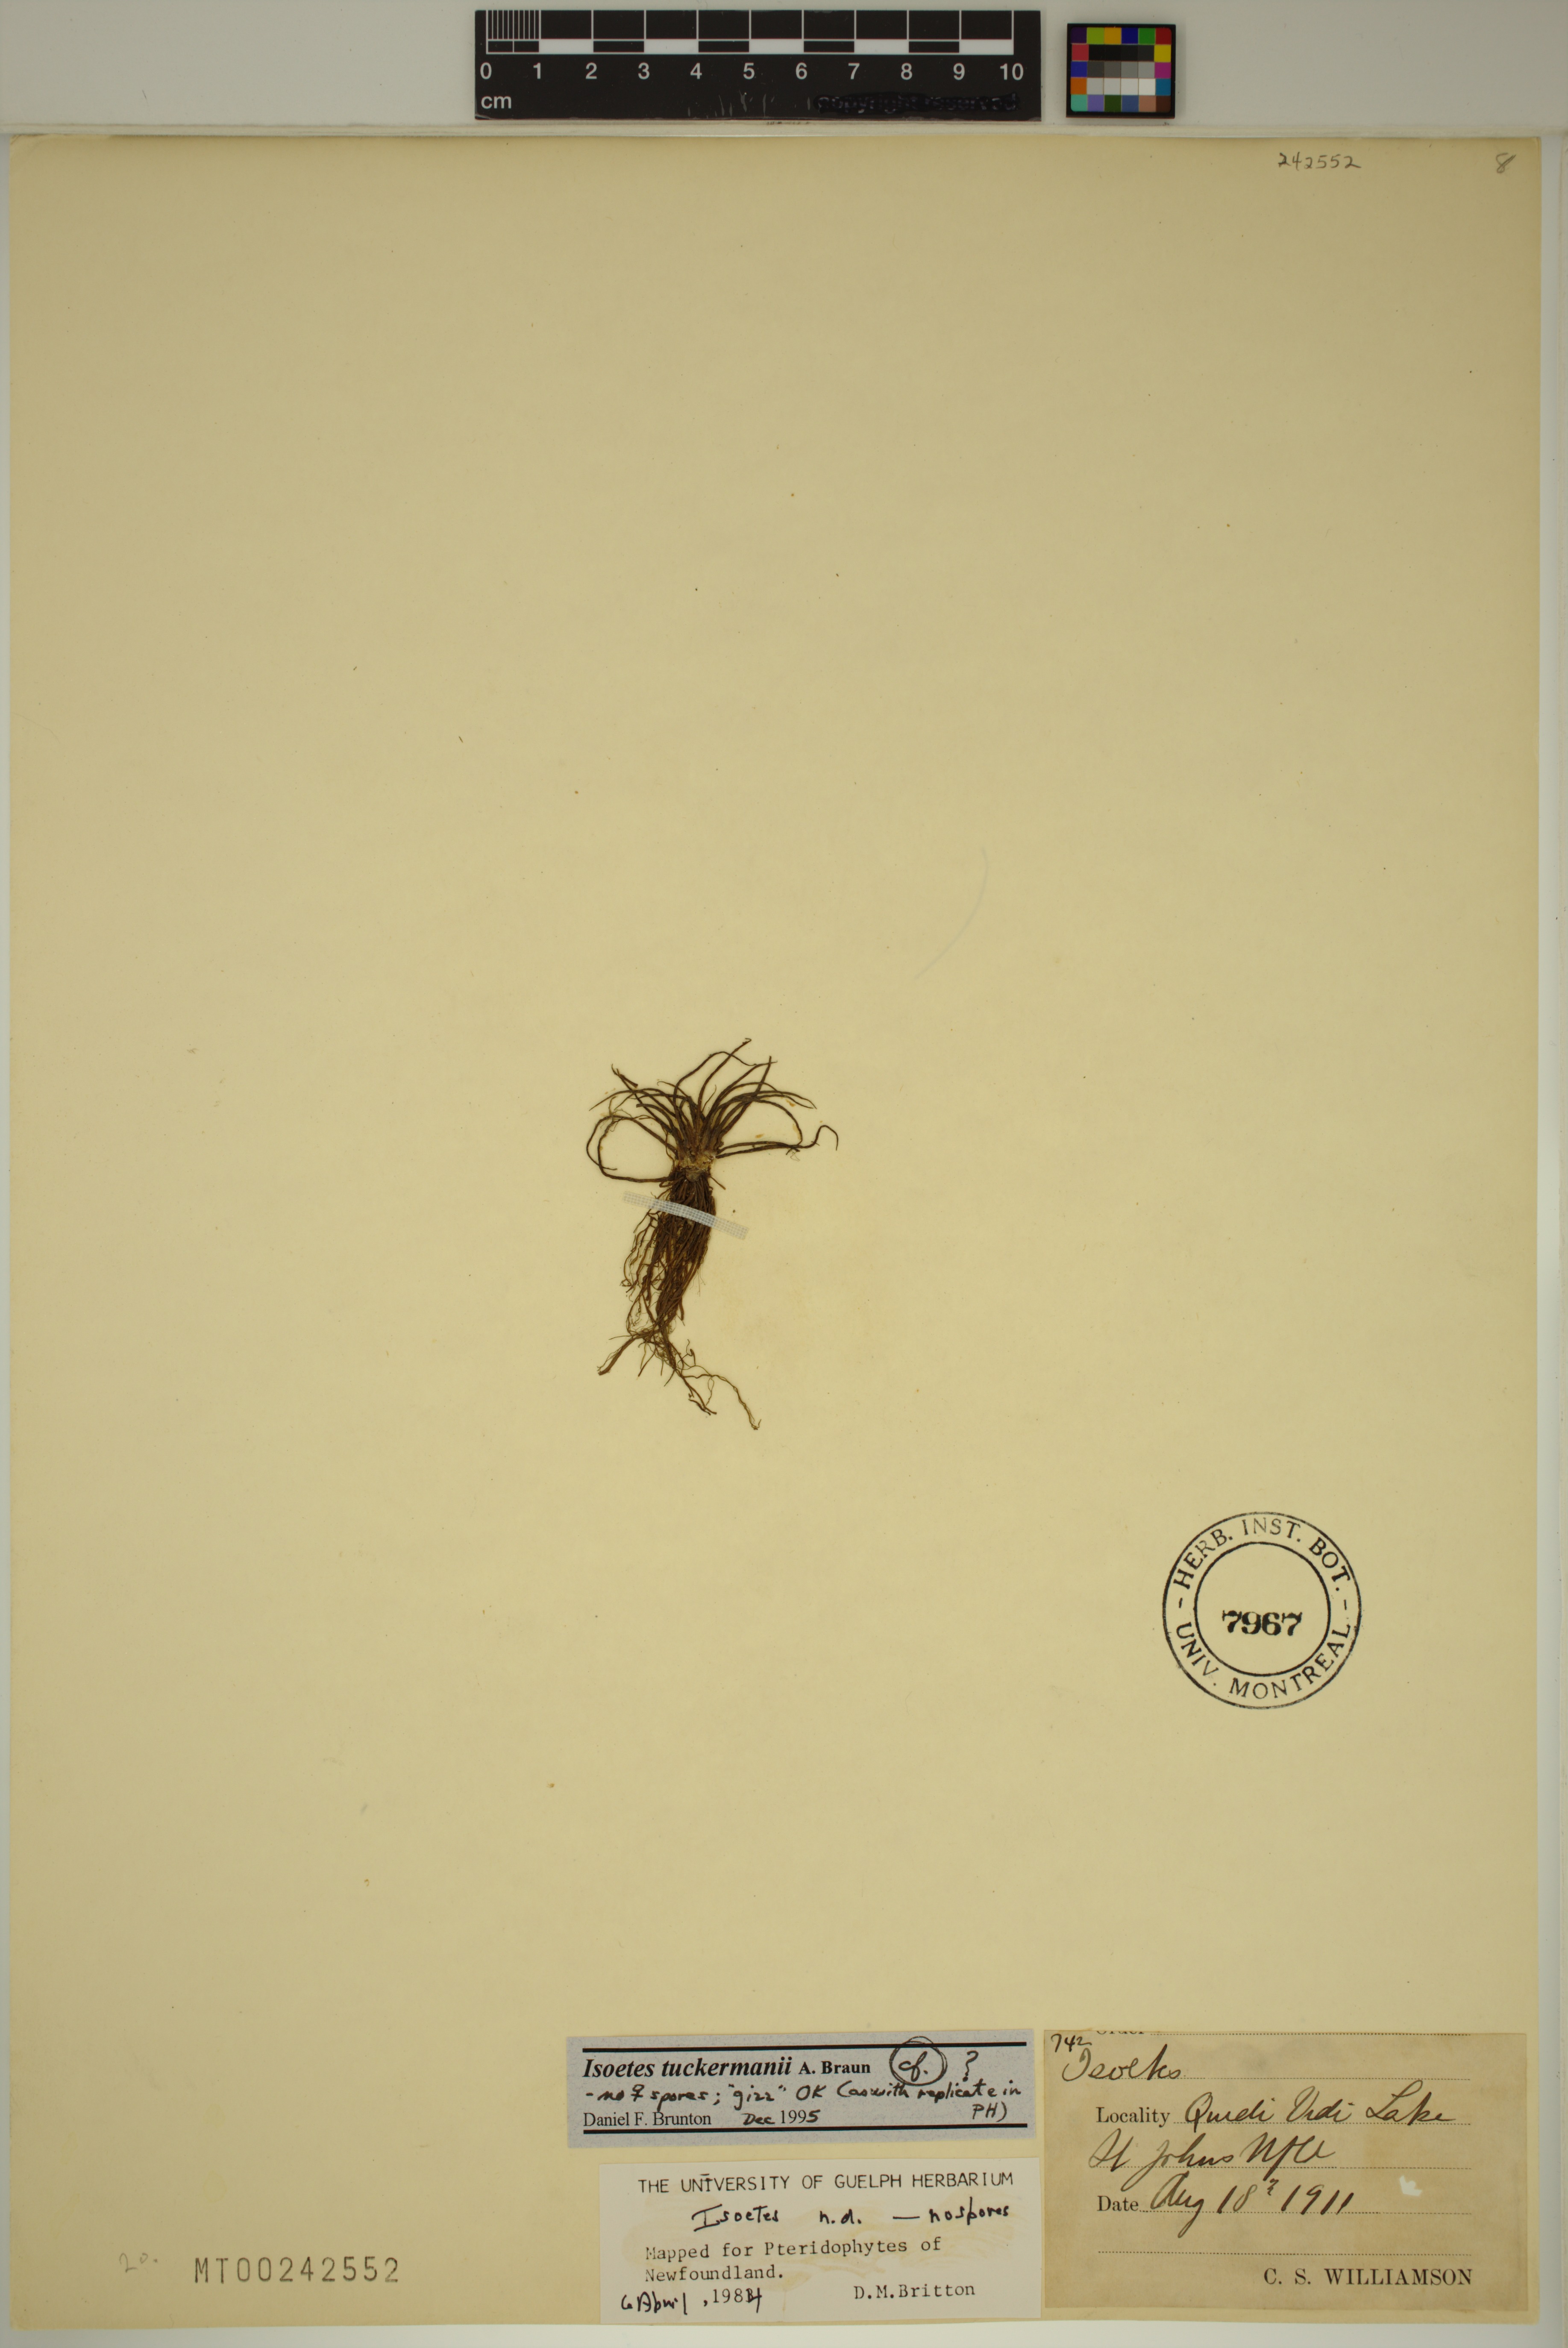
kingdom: Plantae
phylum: Tracheophyta
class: Lycopodiopsida
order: Isoetales
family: Isoetaceae
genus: Isoetes
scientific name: Isoetes tuckermanii
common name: Tuckerman's quillwort
